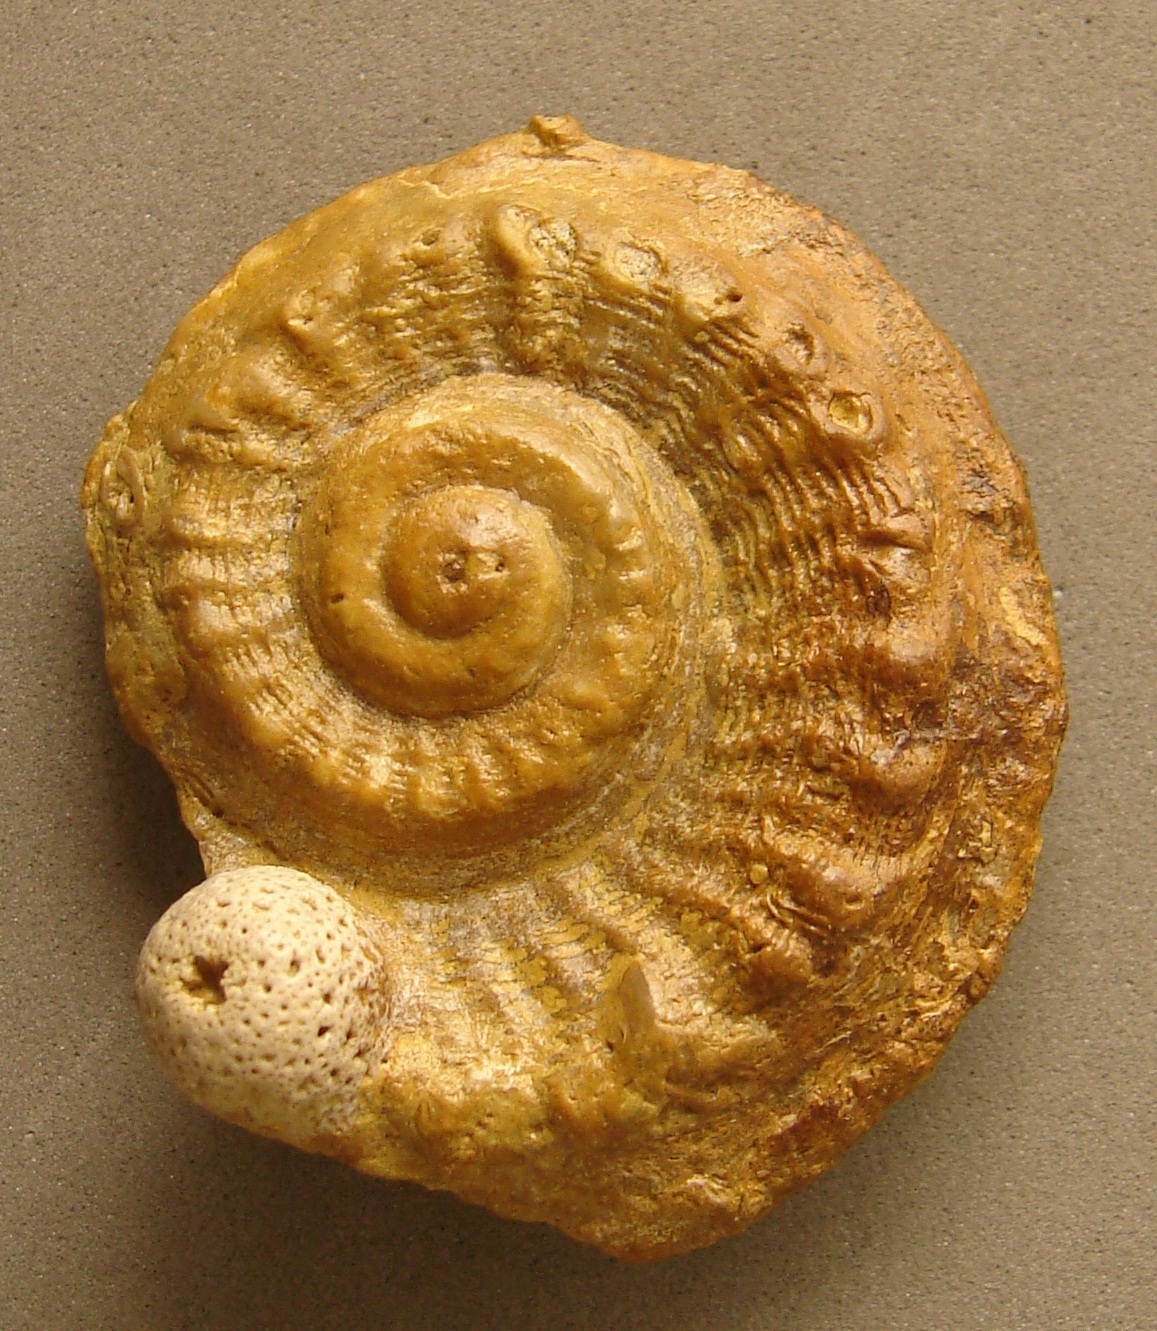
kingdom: Animalia
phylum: Mollusca
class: Gastropoda
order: Pleurotomariida
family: Pleurotomariidae
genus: Pleurotomaria
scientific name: Pleurotomaria
